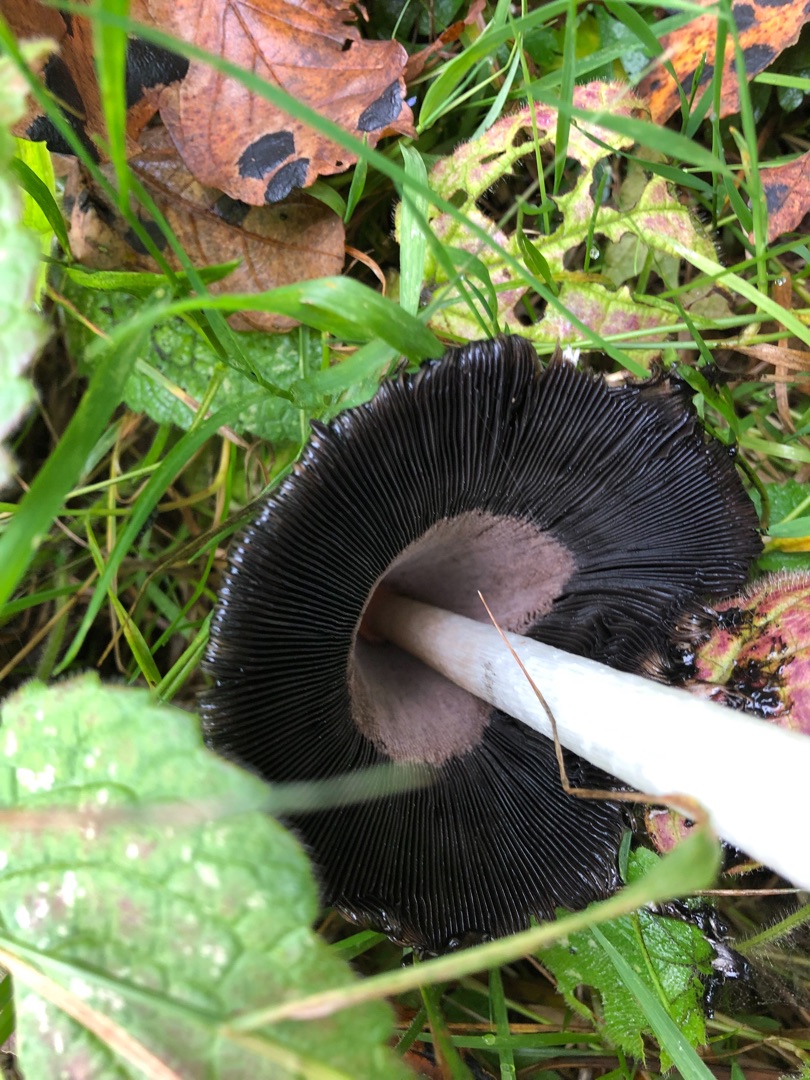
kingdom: Fungi
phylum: Basidiomycota
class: Agaricomycetes
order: Agaricales
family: Agaricaceae
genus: Coprinus
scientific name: Coprinus comatus
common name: Stor parykhat
